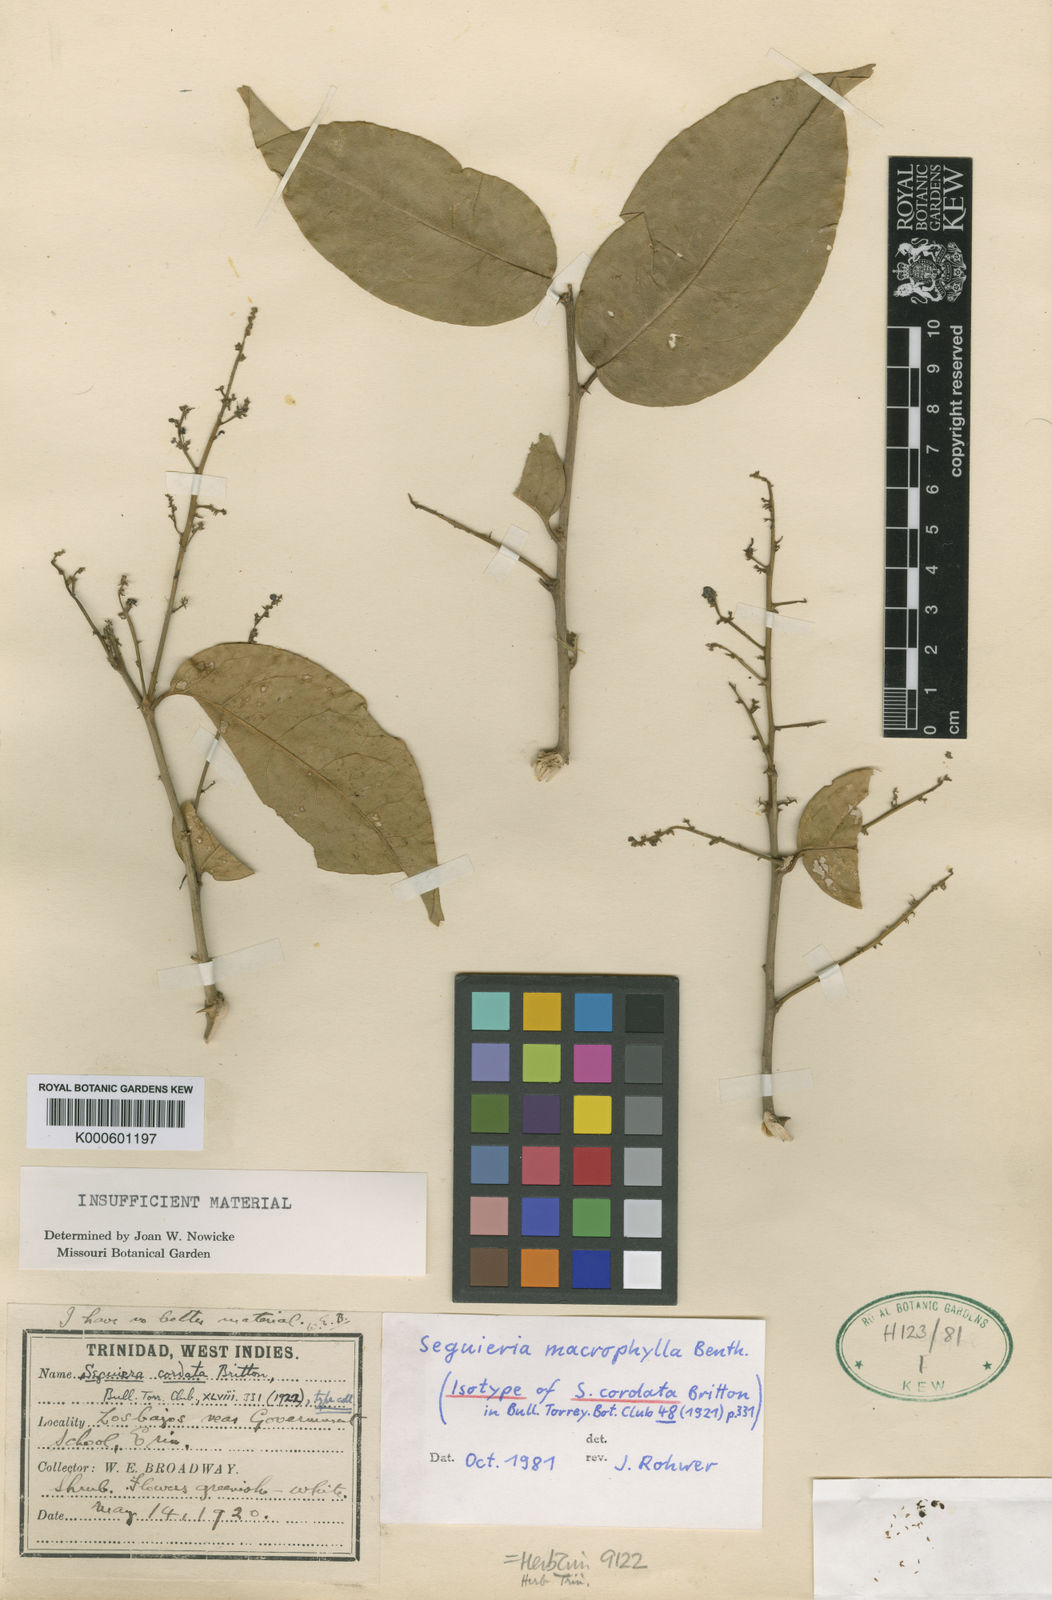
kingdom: Plantae
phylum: Tracheophyta
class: Magnoliopsida
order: Caryophyllales
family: Phytolaccaceae
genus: Seguieria
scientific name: Seguieria macrophylla
